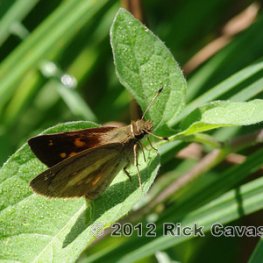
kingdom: Animalia
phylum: Arthropoda
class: Insecta
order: Lepidoptera
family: Hesperiidae
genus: Poanes
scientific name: Poanes viator
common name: Broad-winged Skipper
